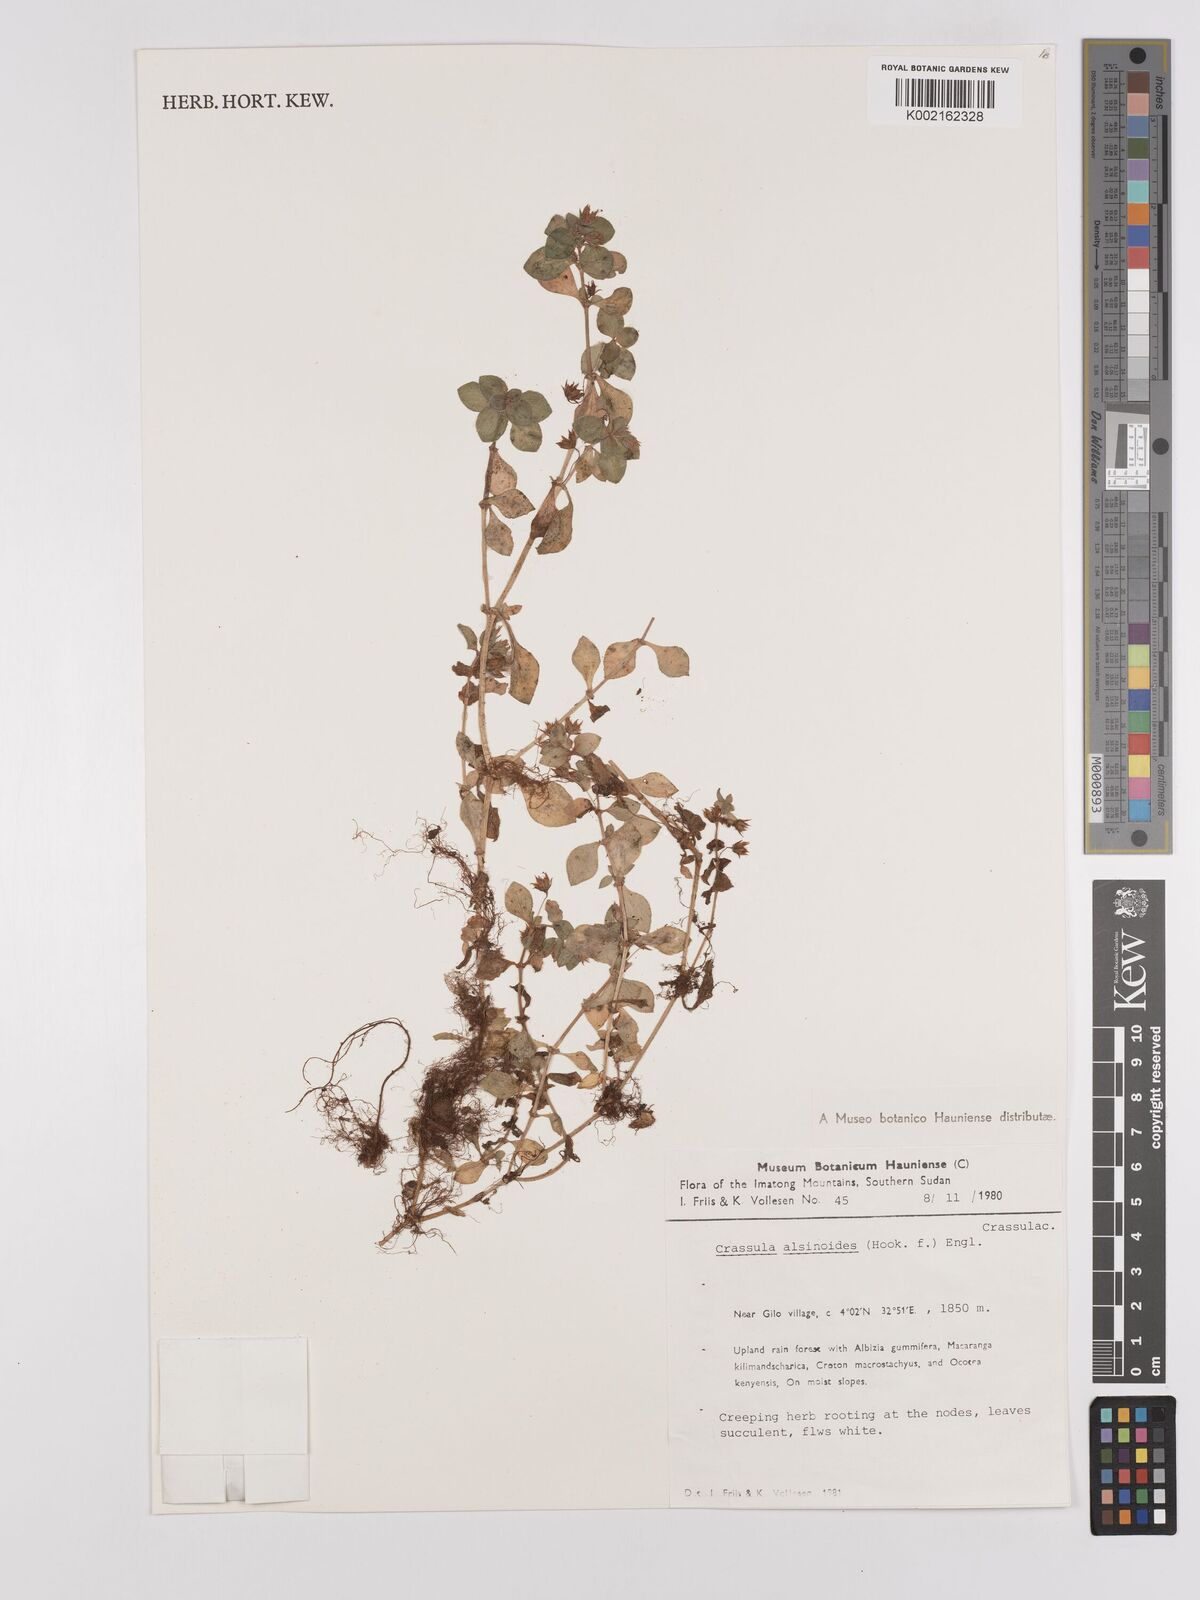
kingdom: Plantae
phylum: Tracheophyta
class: Magnoliopsida
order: Saxifragales
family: Crassulaceae
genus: Crassula
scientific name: Crassula alsinoides
